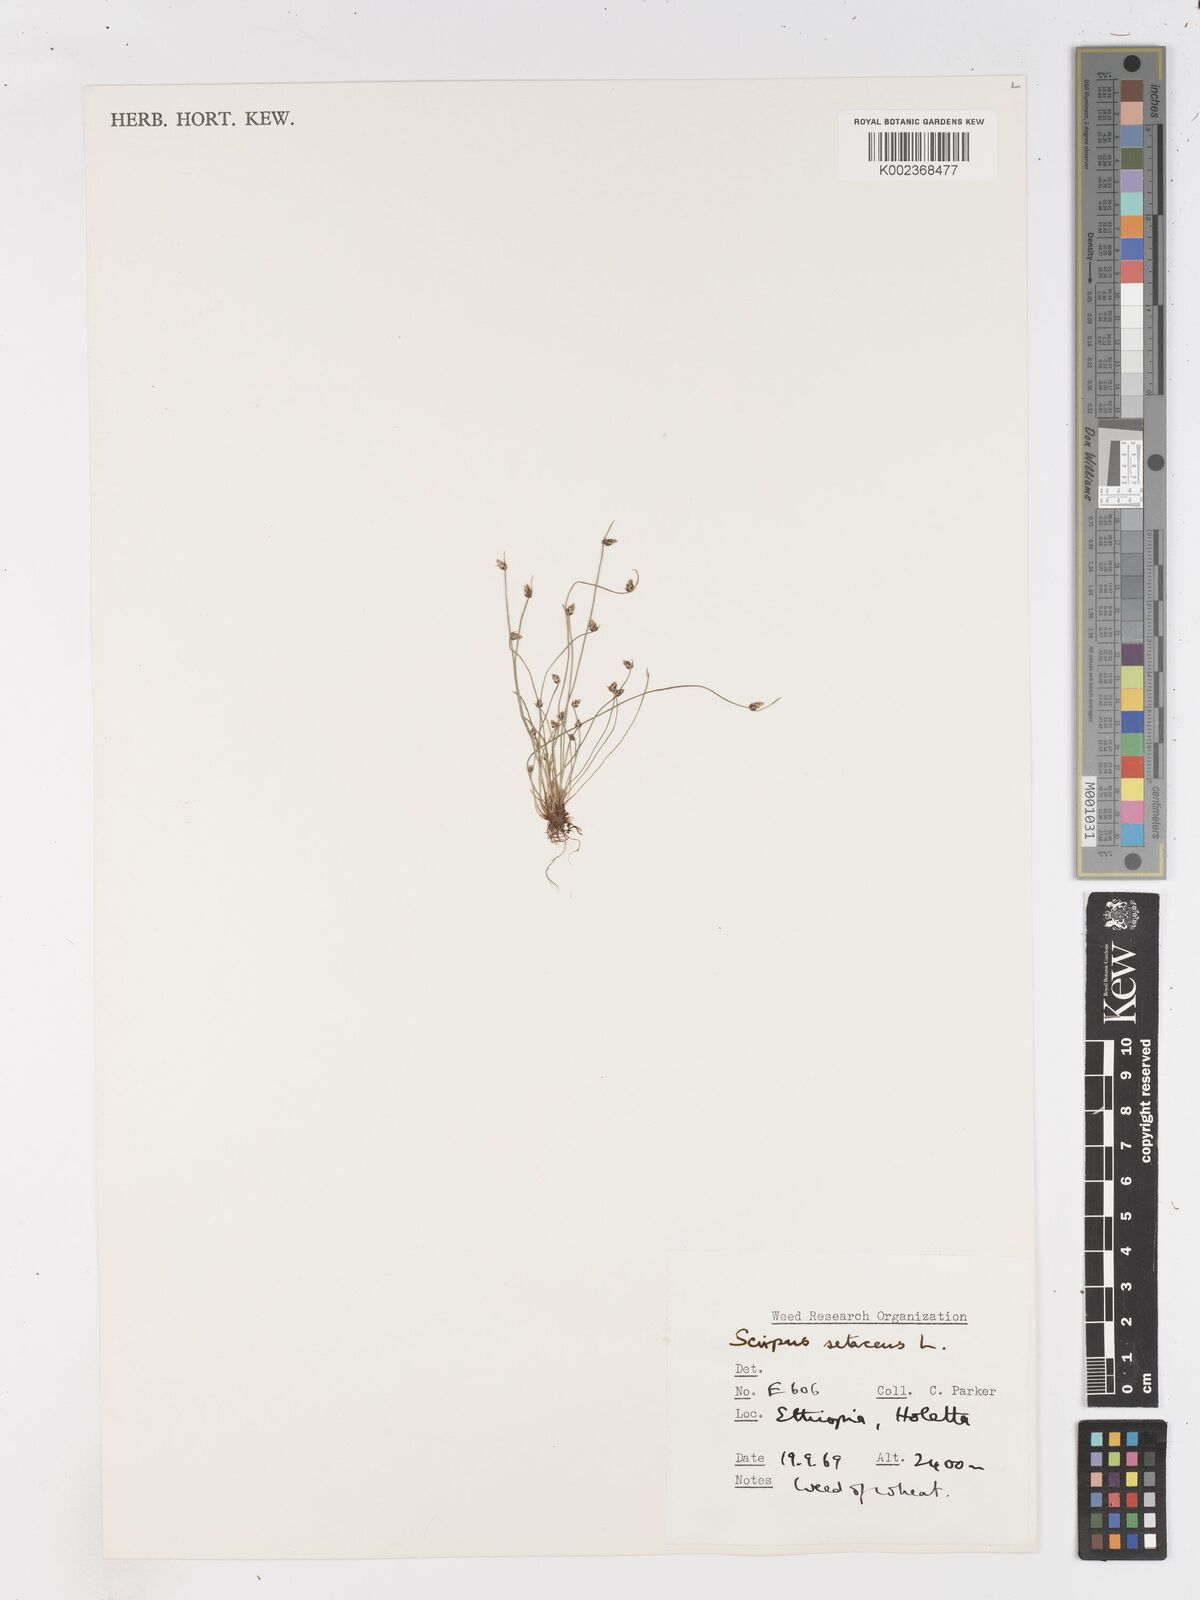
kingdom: Plantae
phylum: Tracheophyta
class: Liliopsida
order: Poales
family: Cyperaceae
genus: Isolepis
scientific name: Isolepis setacea
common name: Bristle club-rush
